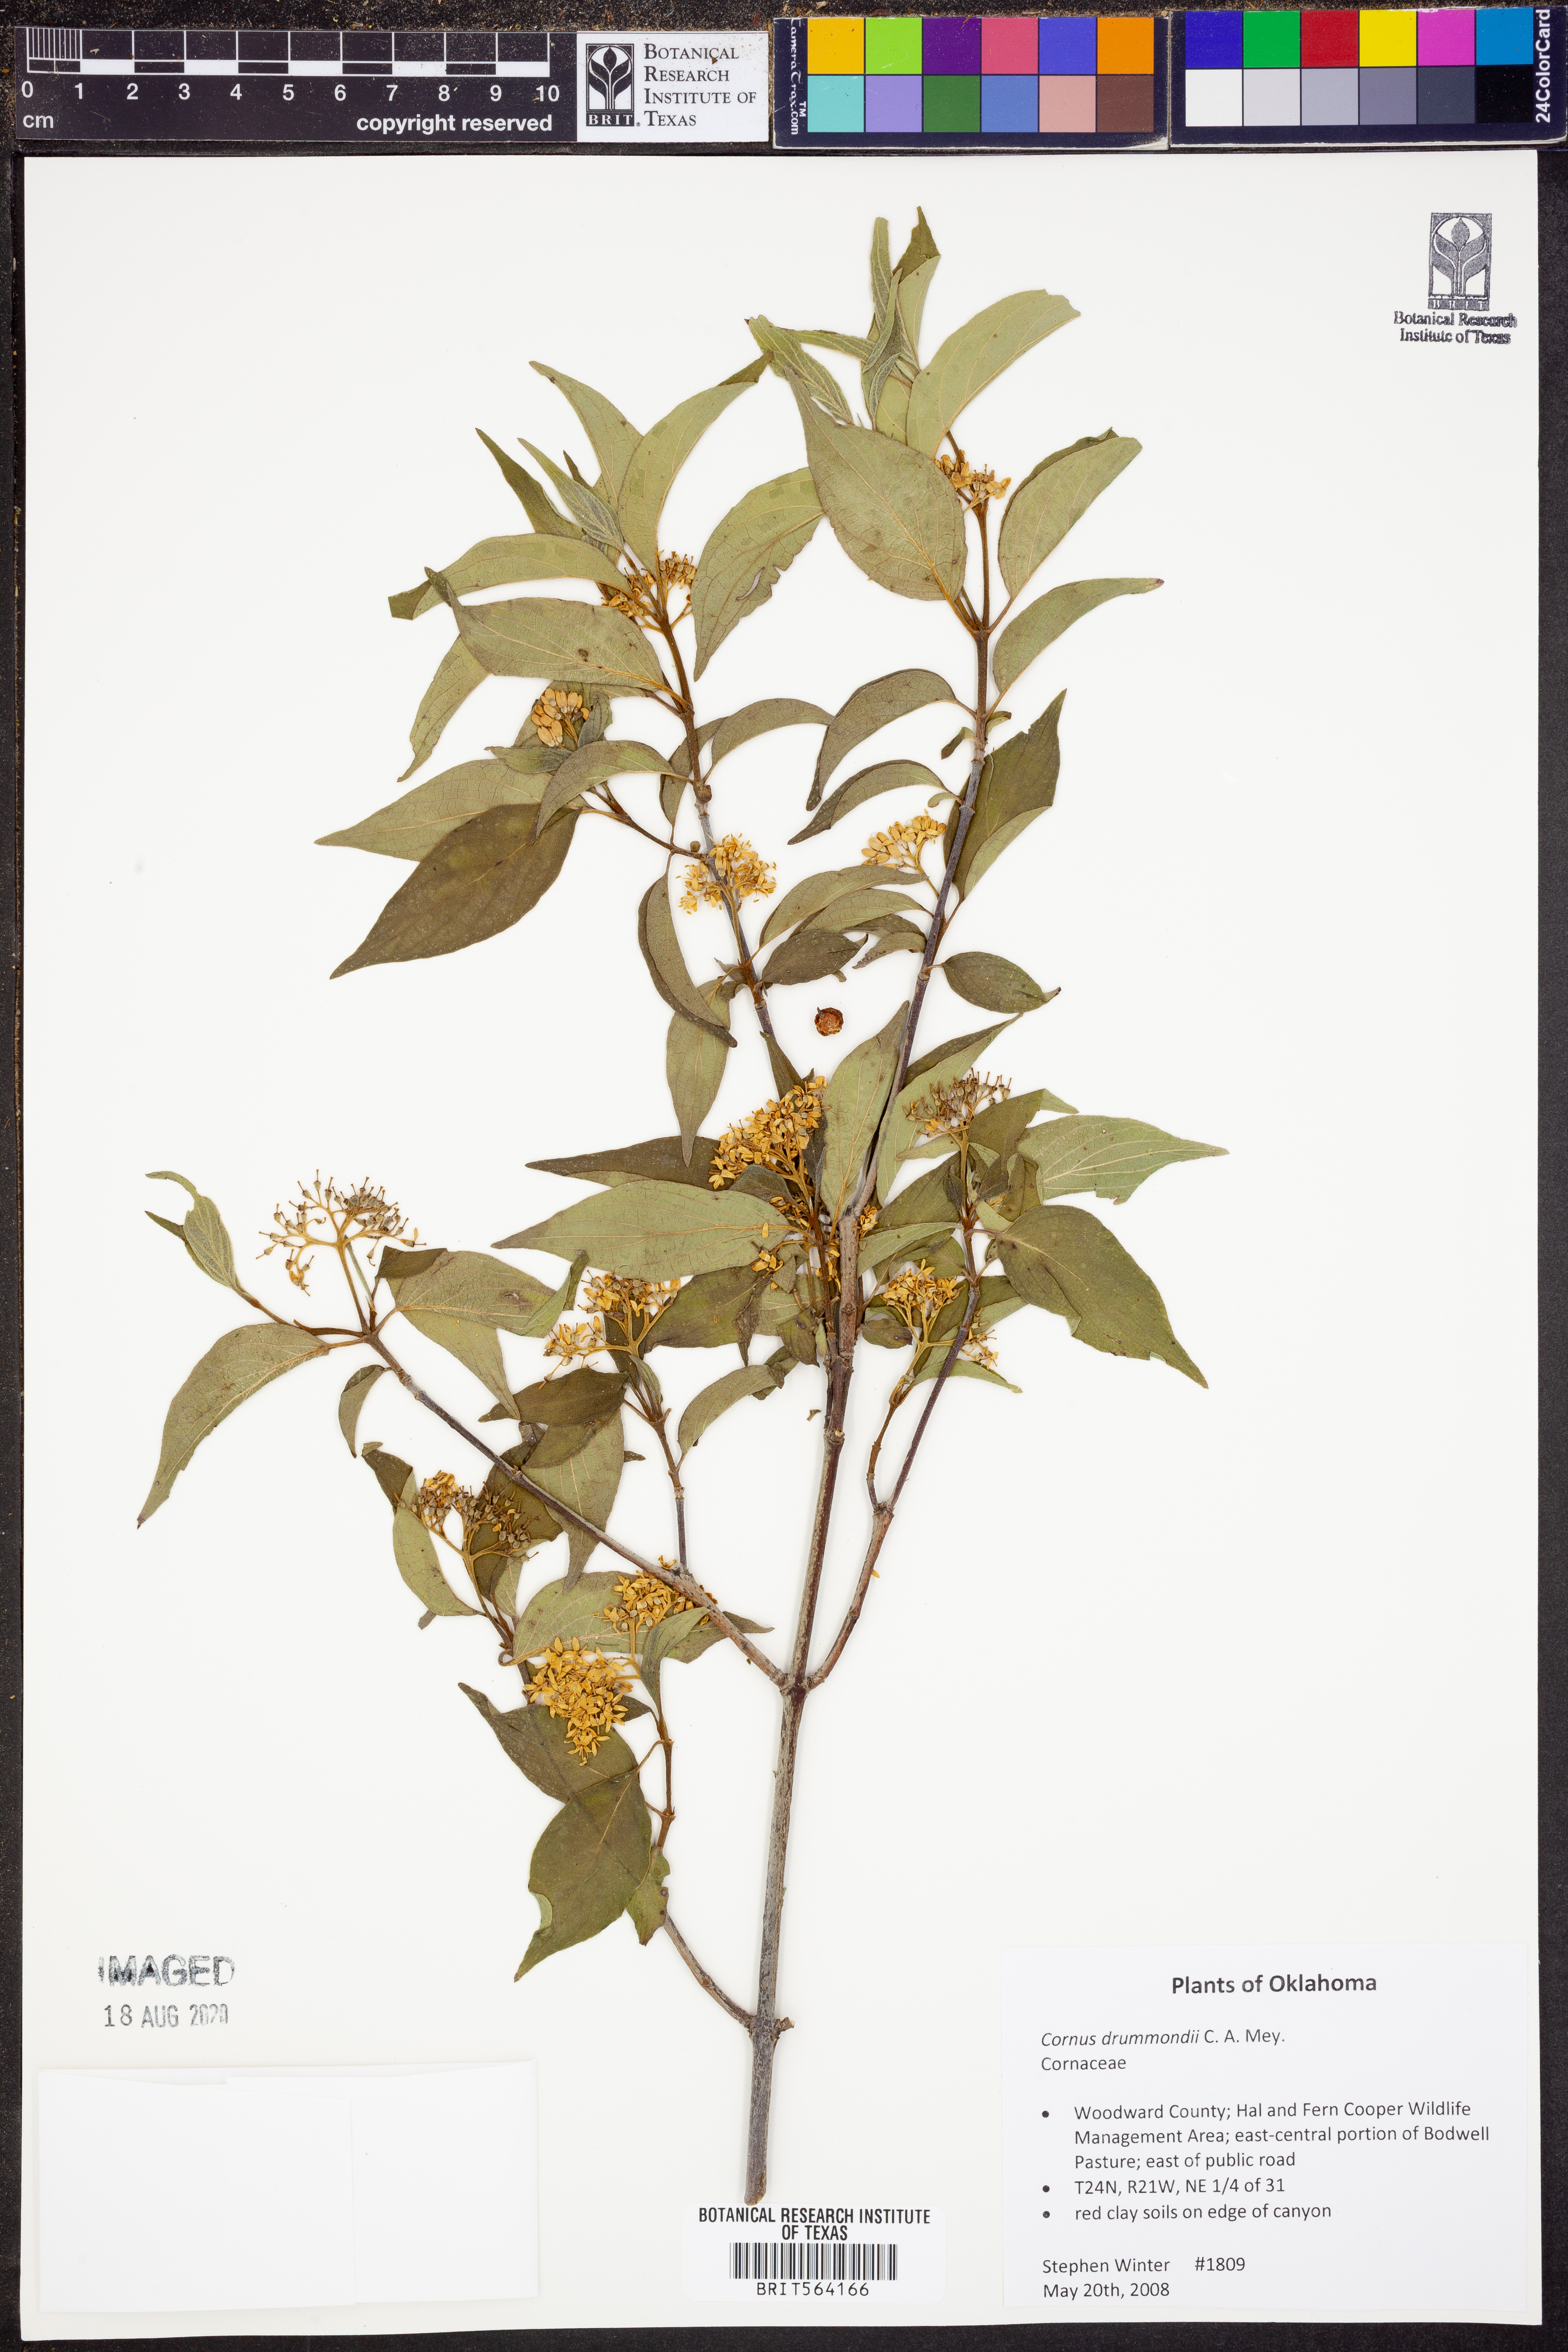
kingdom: Plantae
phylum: Tracheophyta
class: Magnoliopsida
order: Cornales
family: Cornaceae
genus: Cornus
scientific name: Cornus drummondii
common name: Rough-leaf dogwood
